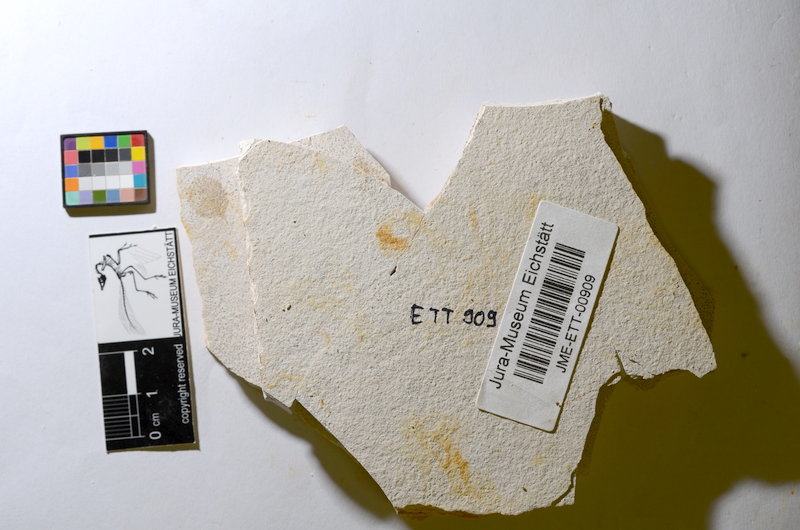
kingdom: Animalia
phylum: Chordata
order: Salmoniformes
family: Orthogonikleithridae
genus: Orthogonikleithrus
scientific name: Orthogonikleithrus hoelli
